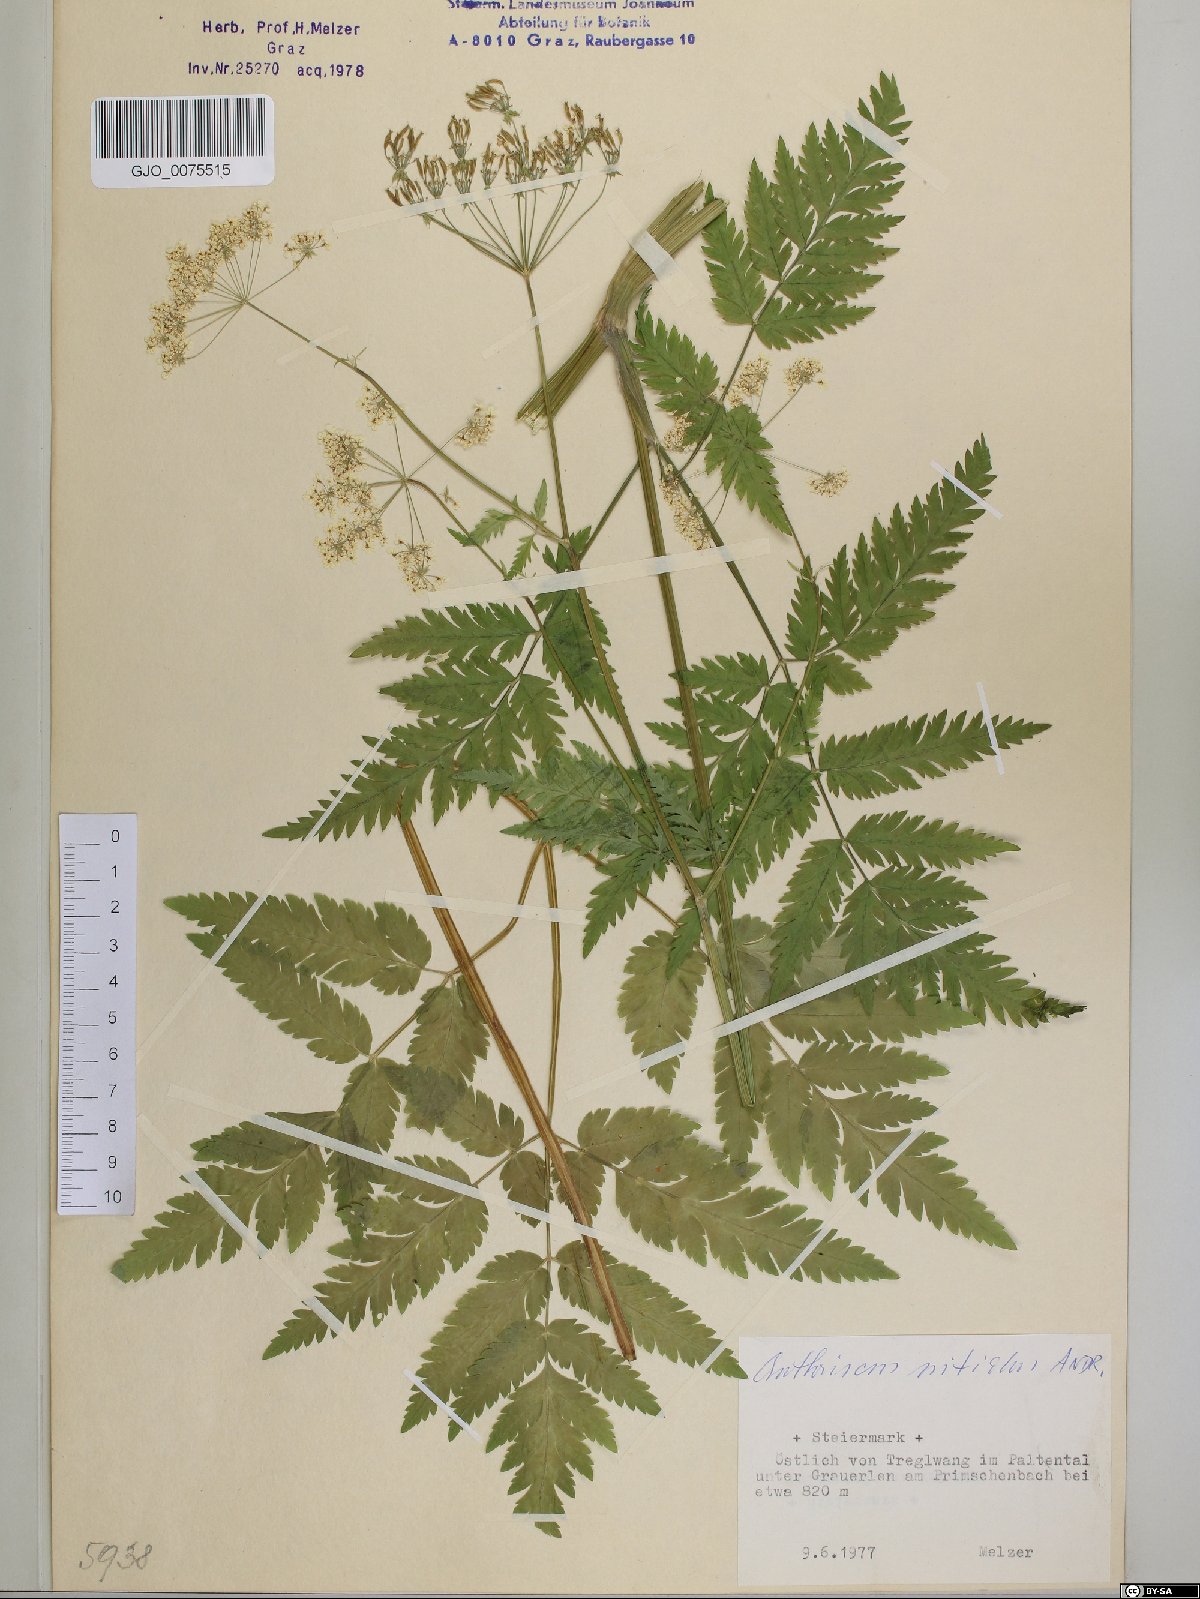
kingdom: Plantae
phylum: Tracheophyta
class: Magnoliopsida
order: Apiales
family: Apiaceae
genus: Anthriscus
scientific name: Anthriscus nitida
